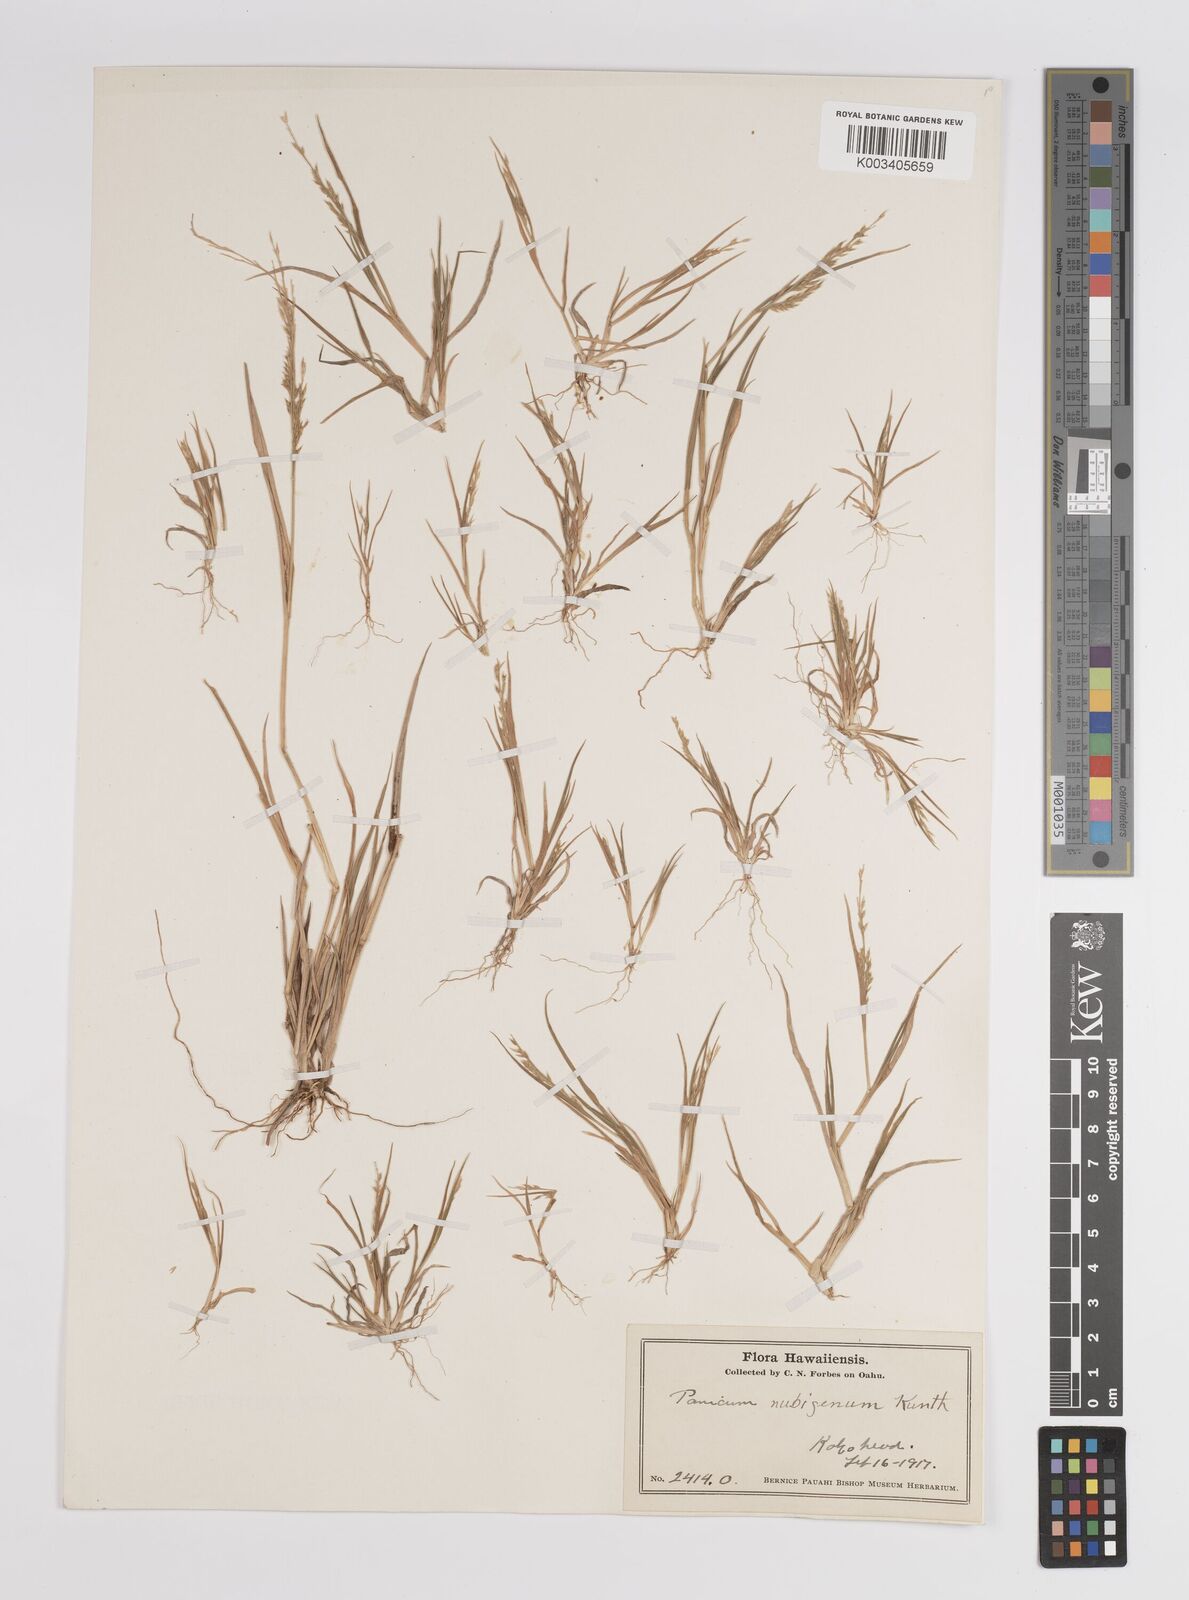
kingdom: Plantae
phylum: Tracheophyta
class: Liliopsida
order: Poales
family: Poaceae
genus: Panicum
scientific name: Panicum fauriei
